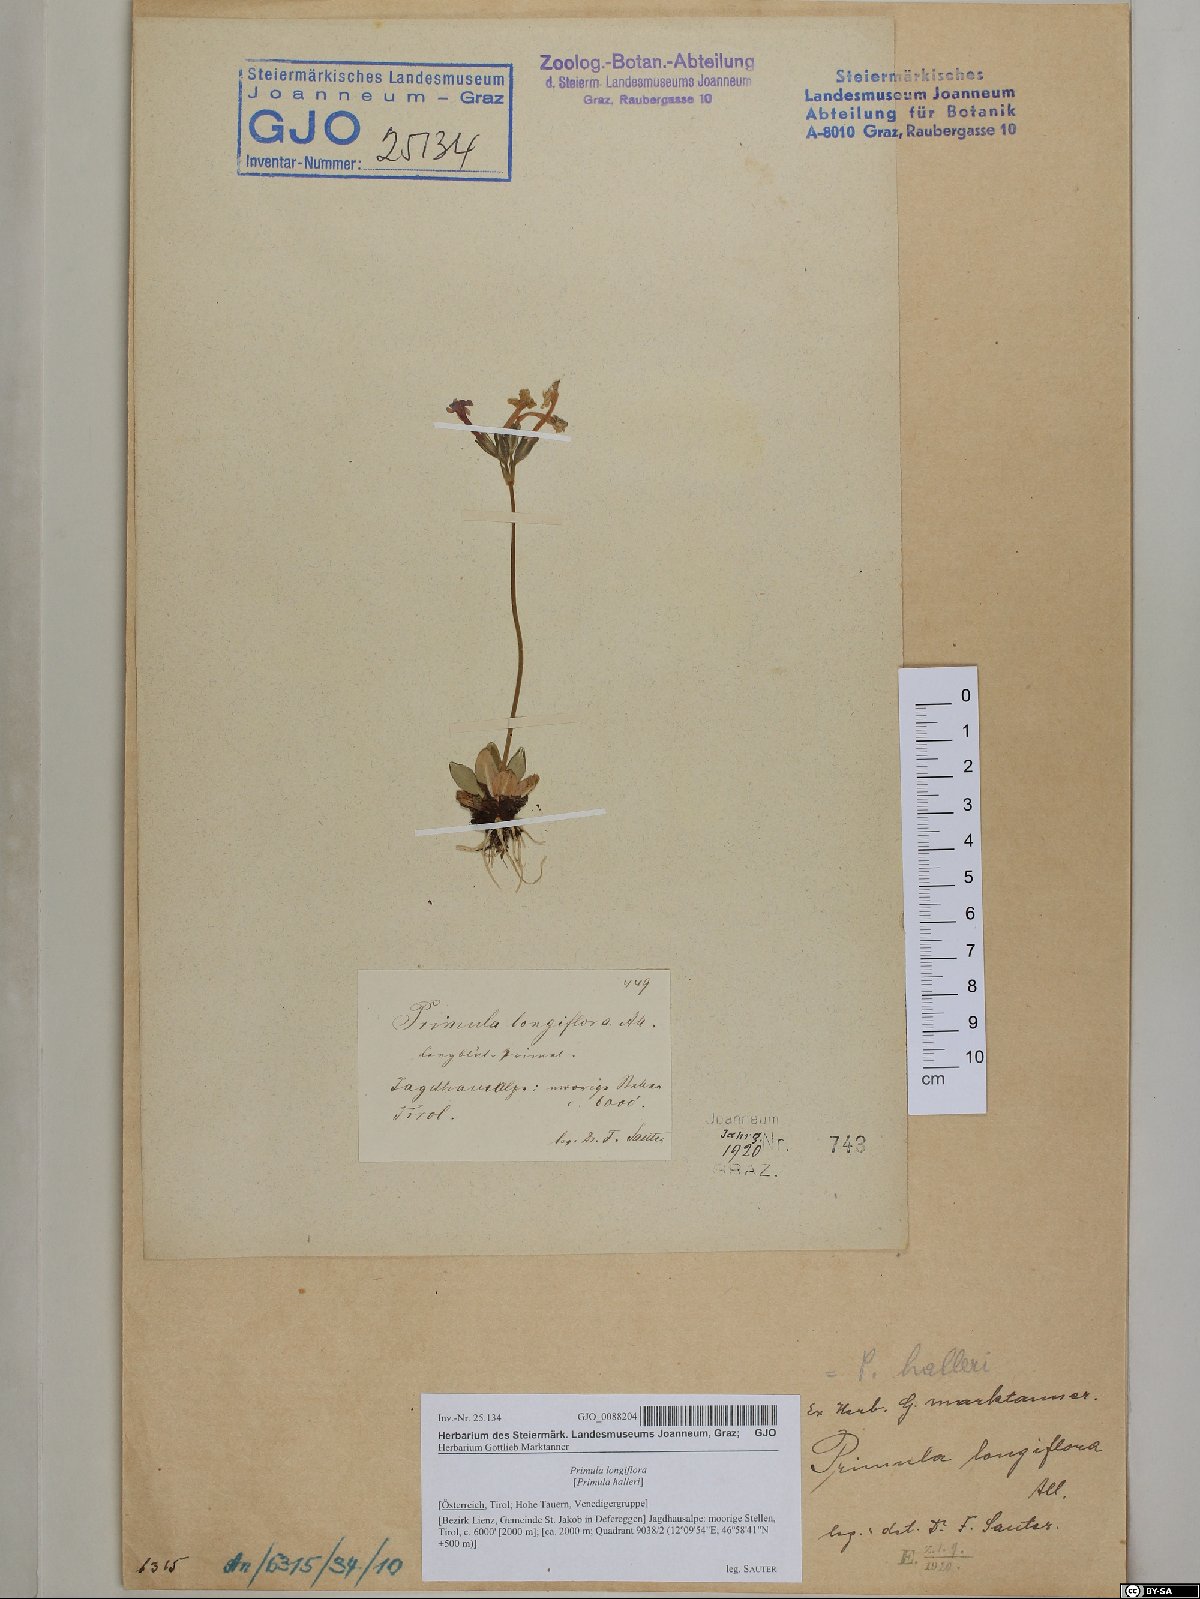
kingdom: Plantae
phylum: Tracheophyta
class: Magnoliopsida
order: Ericales
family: Primulaceae
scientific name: Primulaceae
